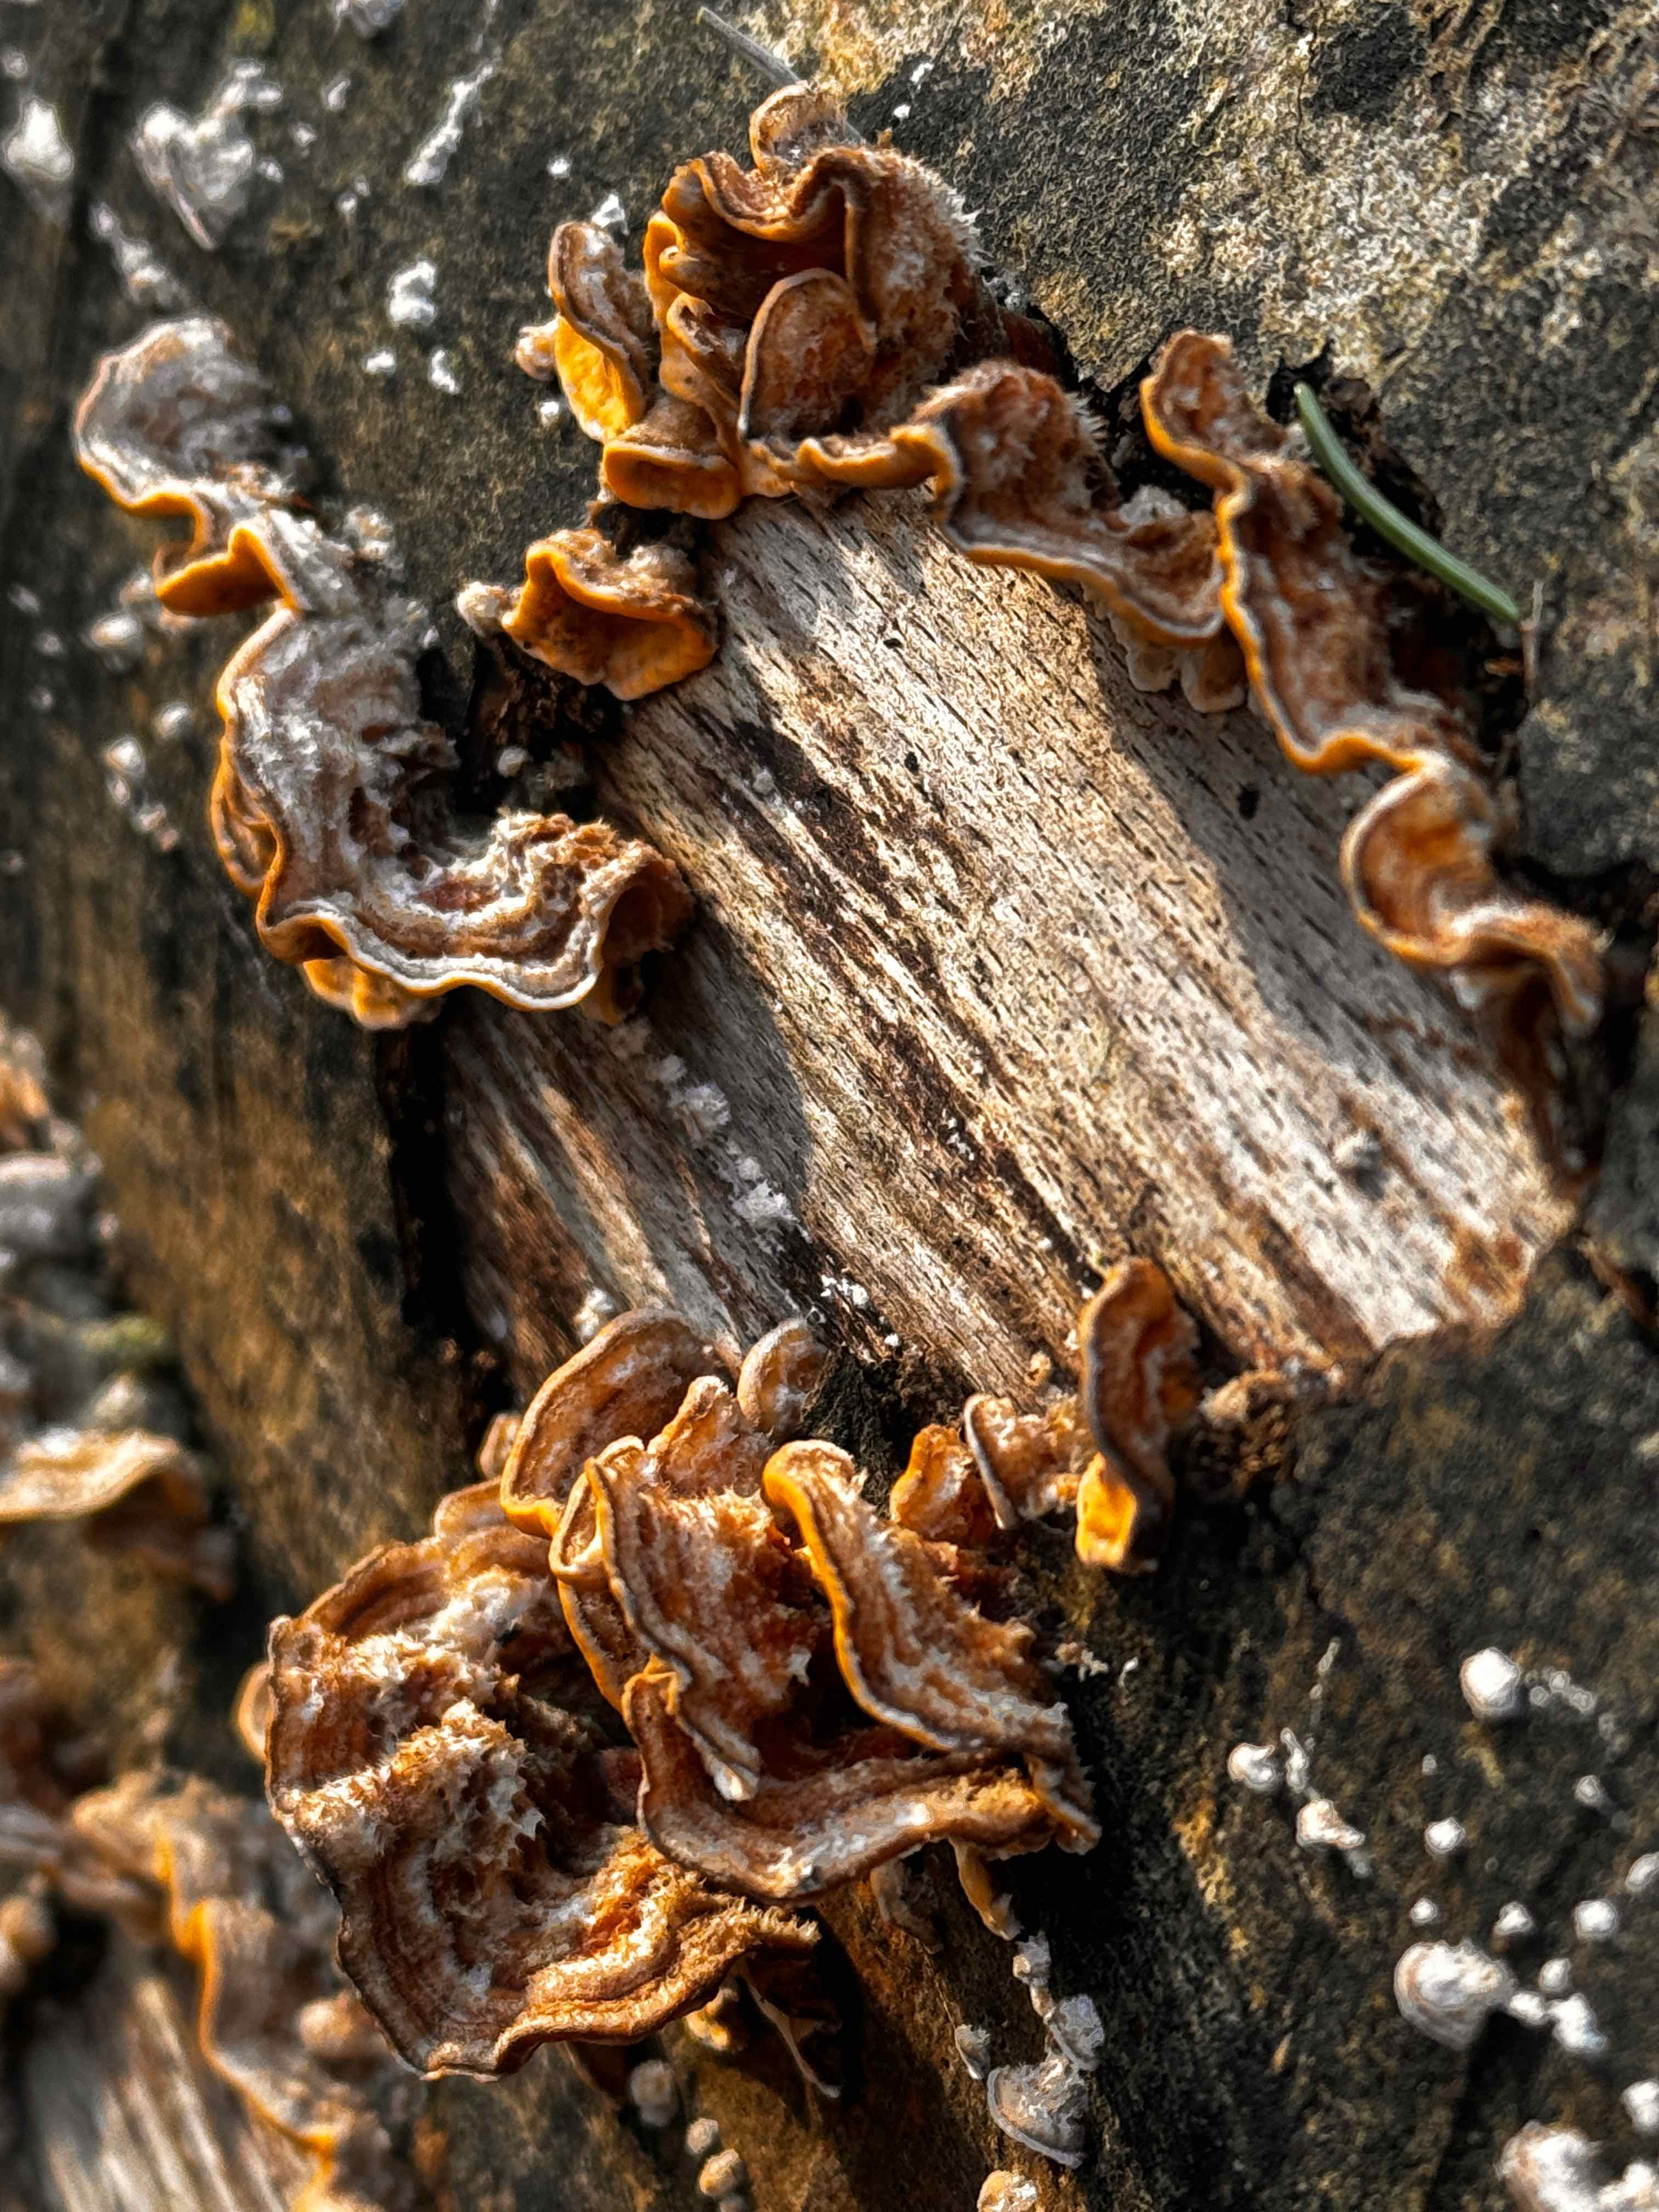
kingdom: Fungi
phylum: Basidiomycota
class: Agaricomycetes
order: Russulales
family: Stereaceae
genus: Stereum
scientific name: Stereum hirsutum
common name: håret lædersvamp
